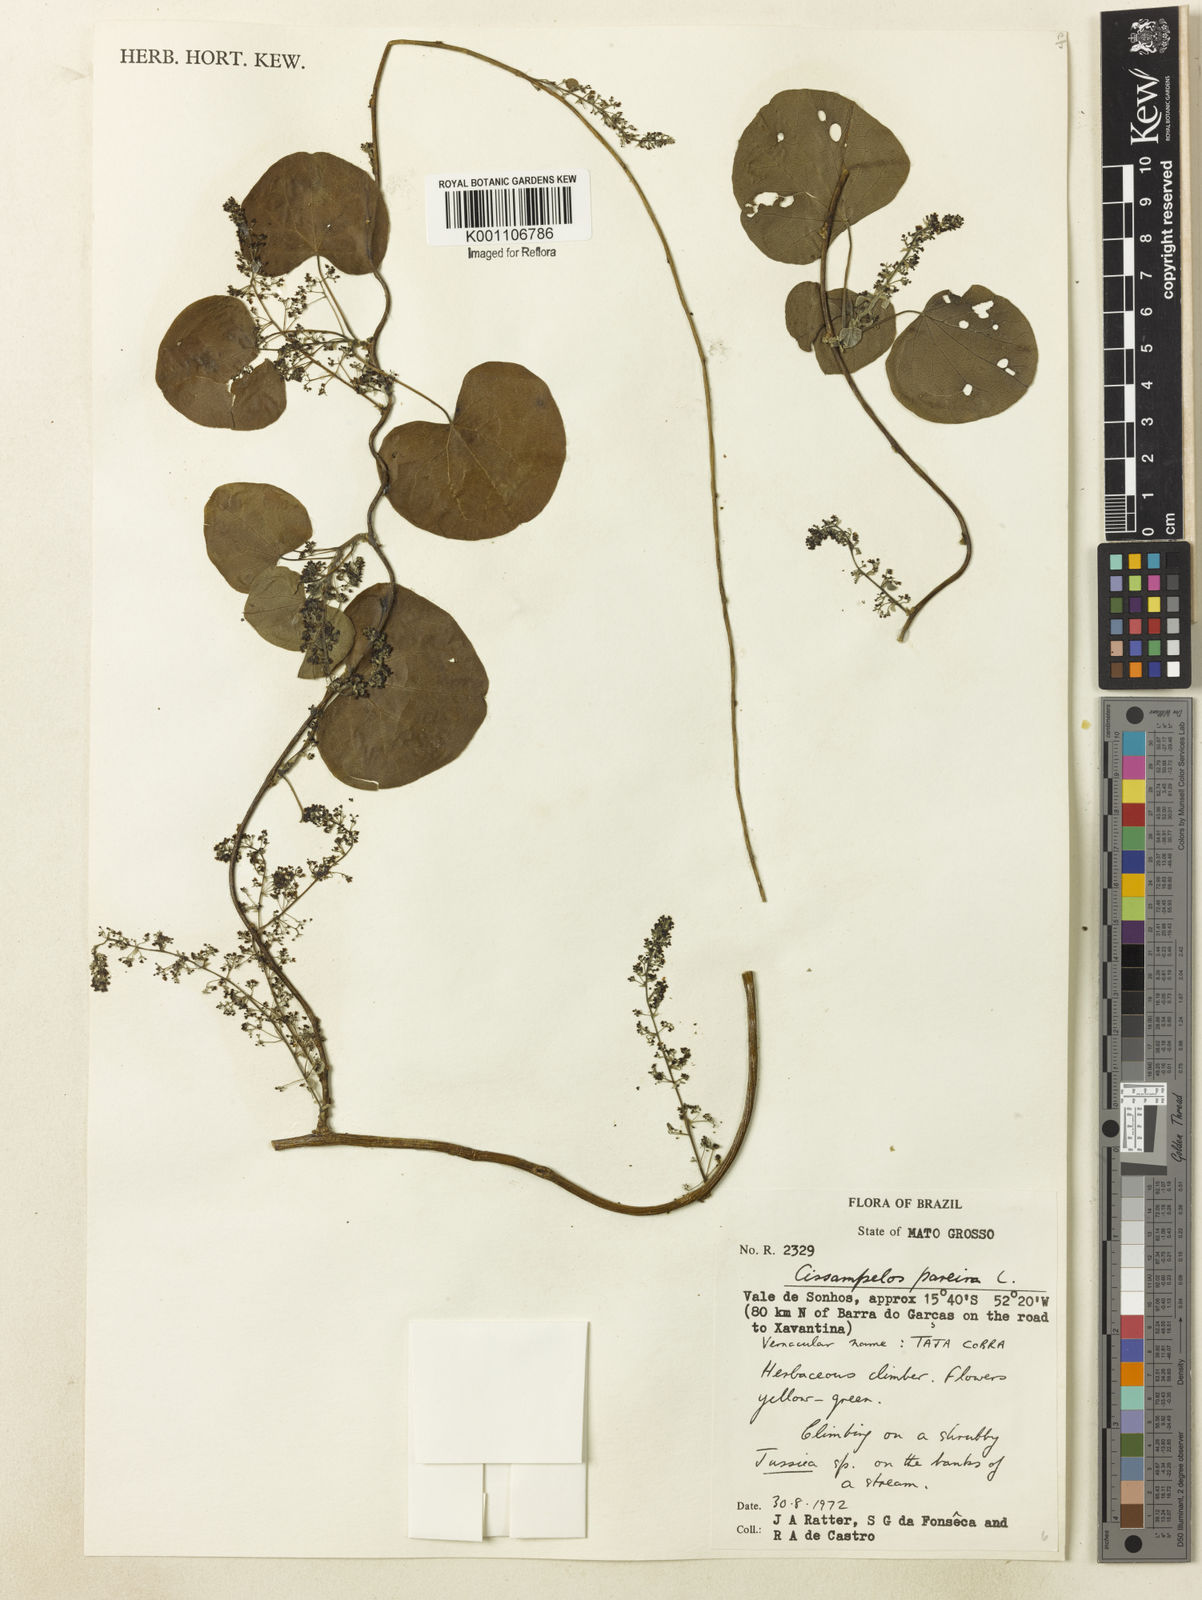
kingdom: Plantae
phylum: Tracheophyta
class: Magnoliopsida
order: Ranunculales
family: Menispermaceae
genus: Cissampelos
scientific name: Cissampelos pareira
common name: Velvetleaf
